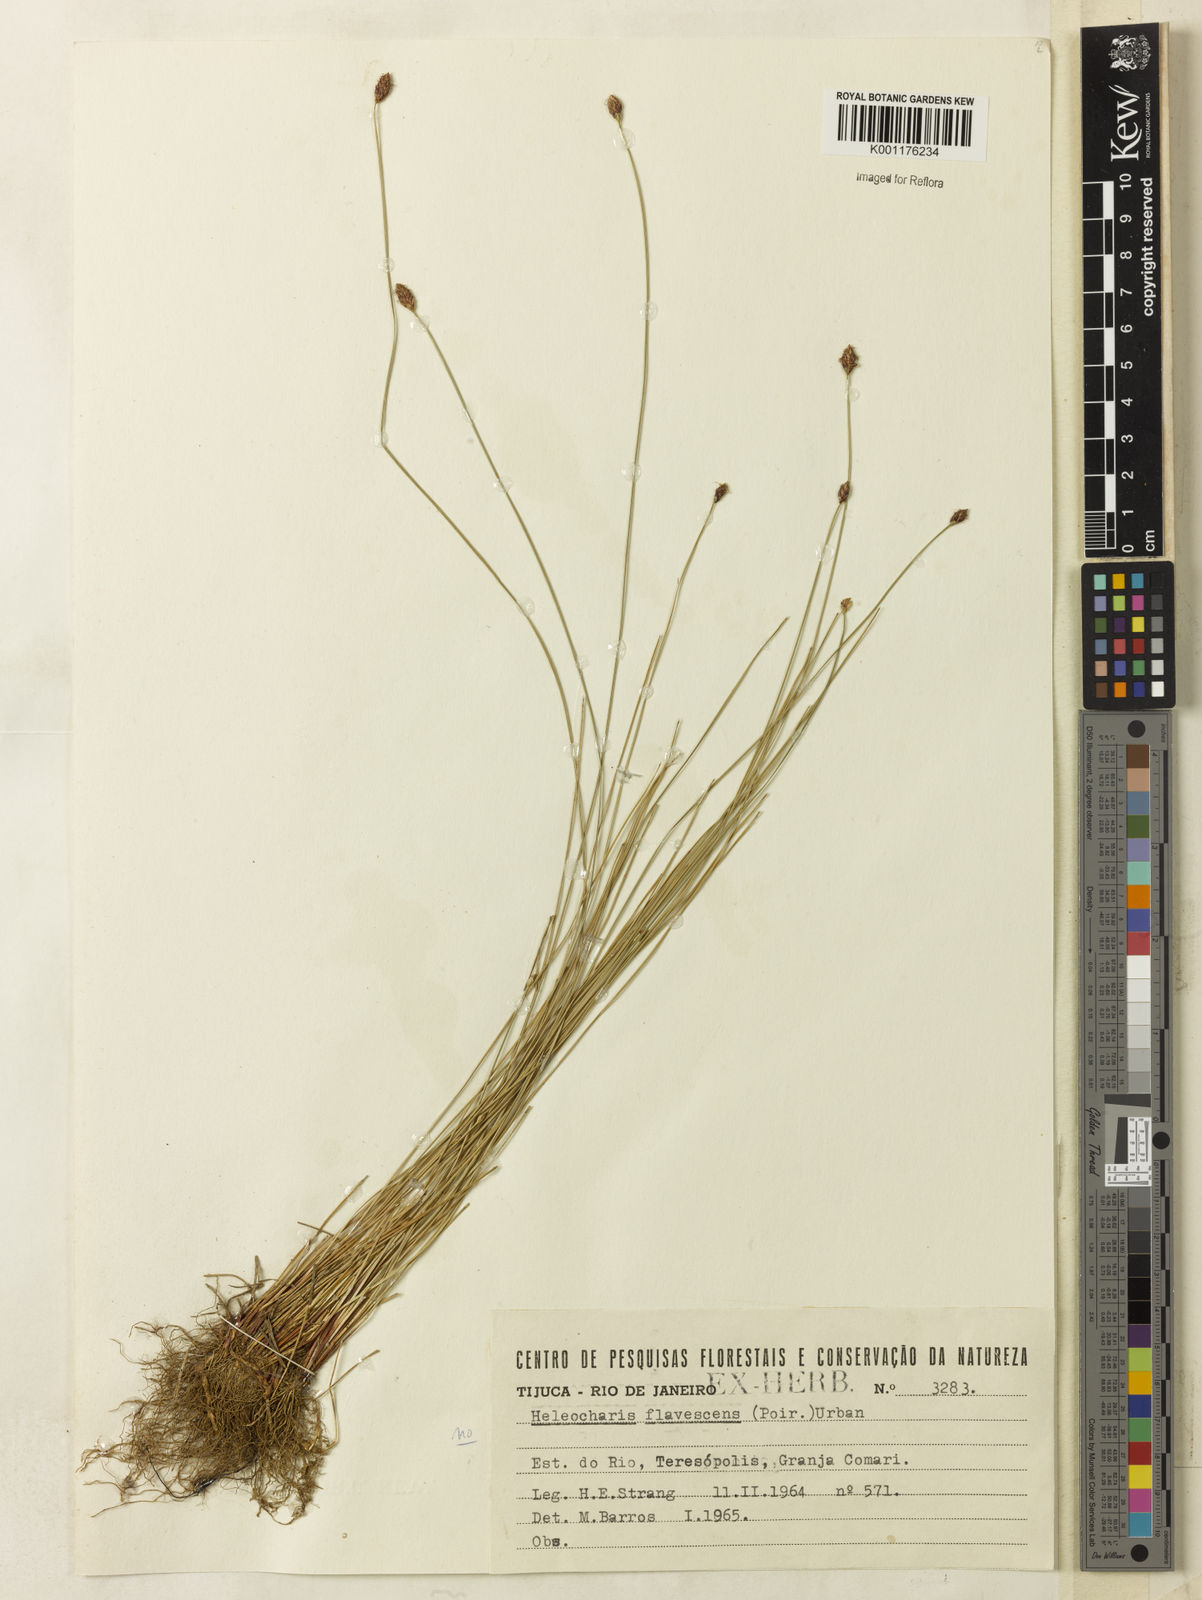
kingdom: Plantae
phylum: Tracheophyta
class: Liliopsida
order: Poales
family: Cyperaceae
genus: Eleocharis
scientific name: Eleocharis flavescens
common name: Yellow spikerush
